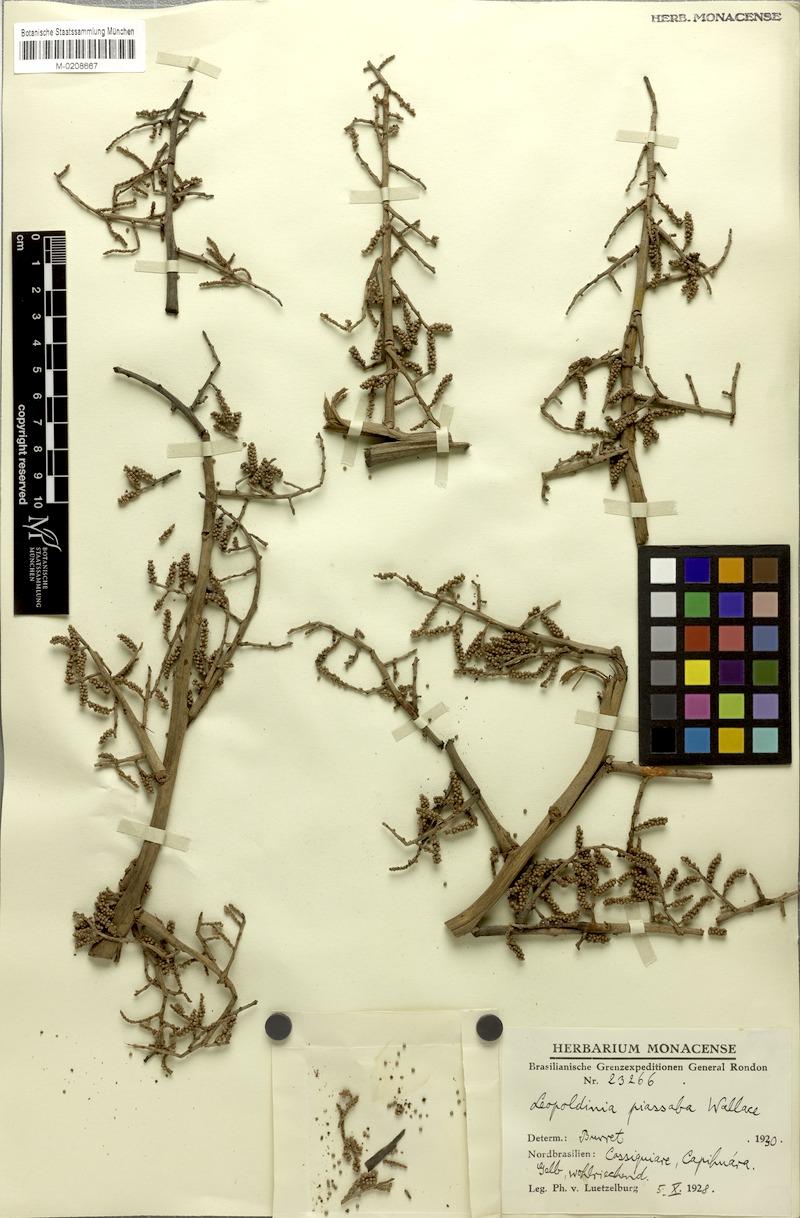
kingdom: Plantae
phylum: Tracheophyta
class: Liliopsida
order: Arecales
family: Arecaceae
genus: Leopoldinia
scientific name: Leopoldinia piassaba
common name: Piassaba
